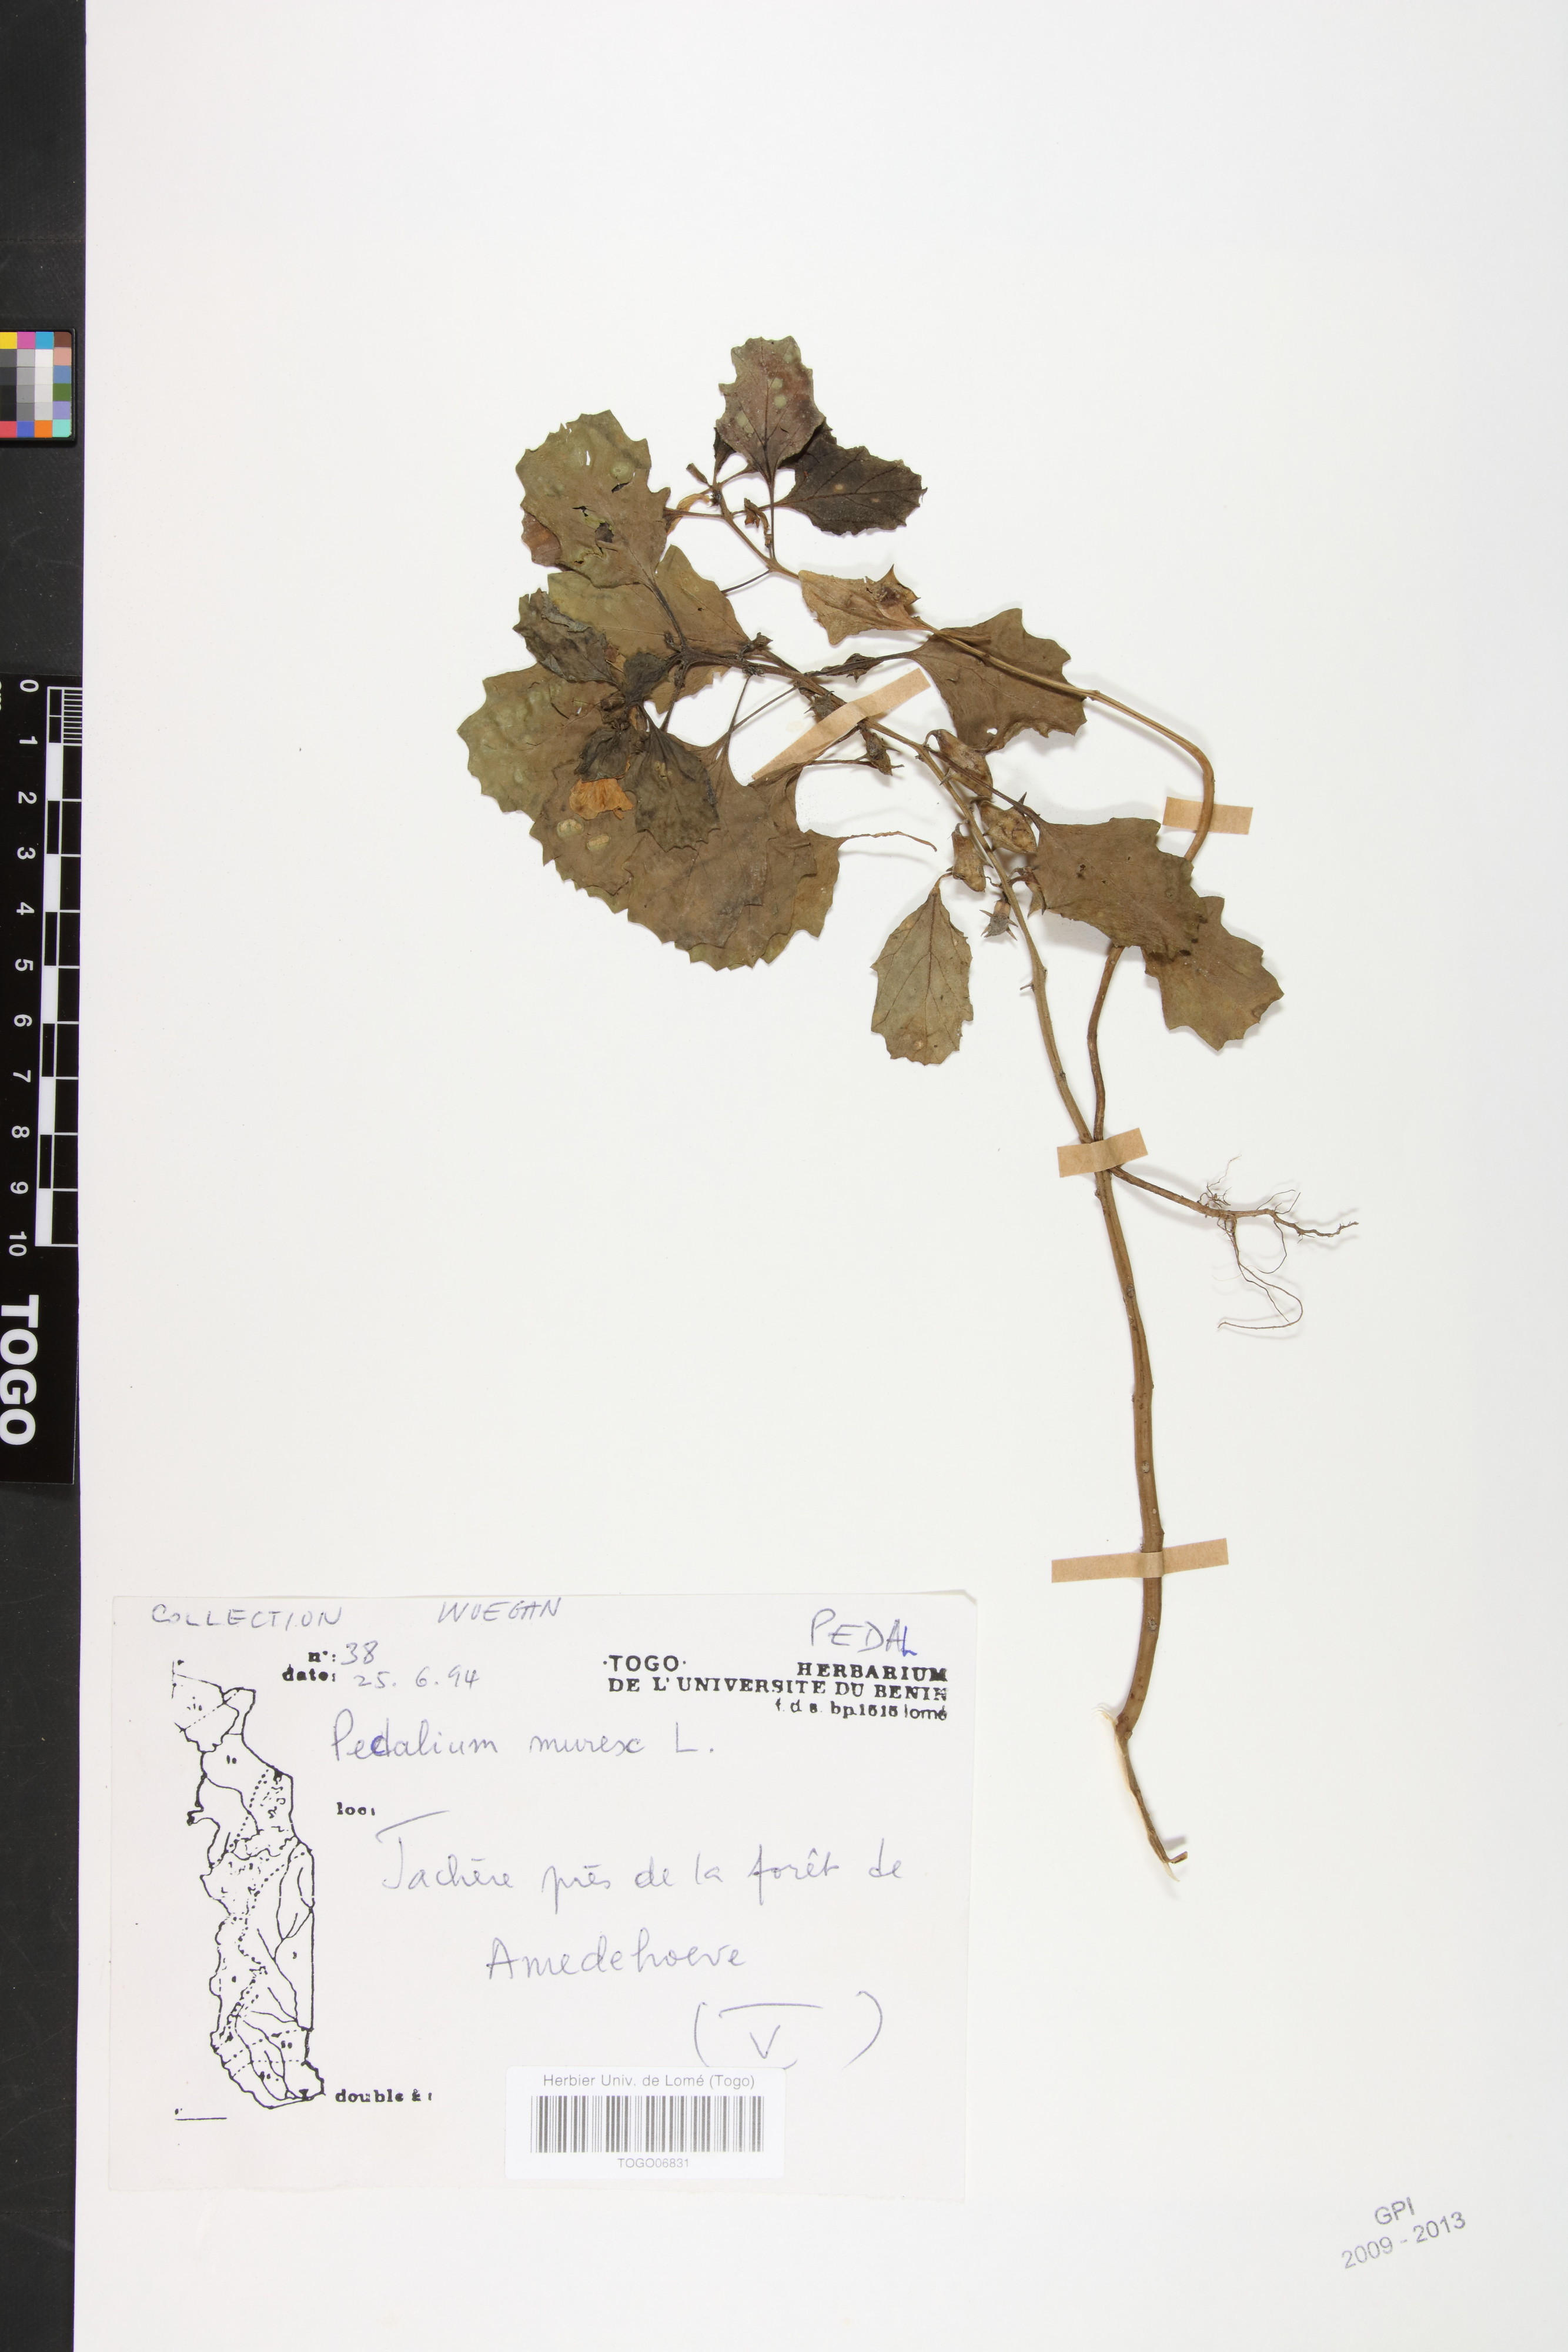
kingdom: Plantae
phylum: Tracheophyta
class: Magnoliopsida
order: Lamiales
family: Pedaliaceae
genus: Pedalium
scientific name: Pedalium murex
